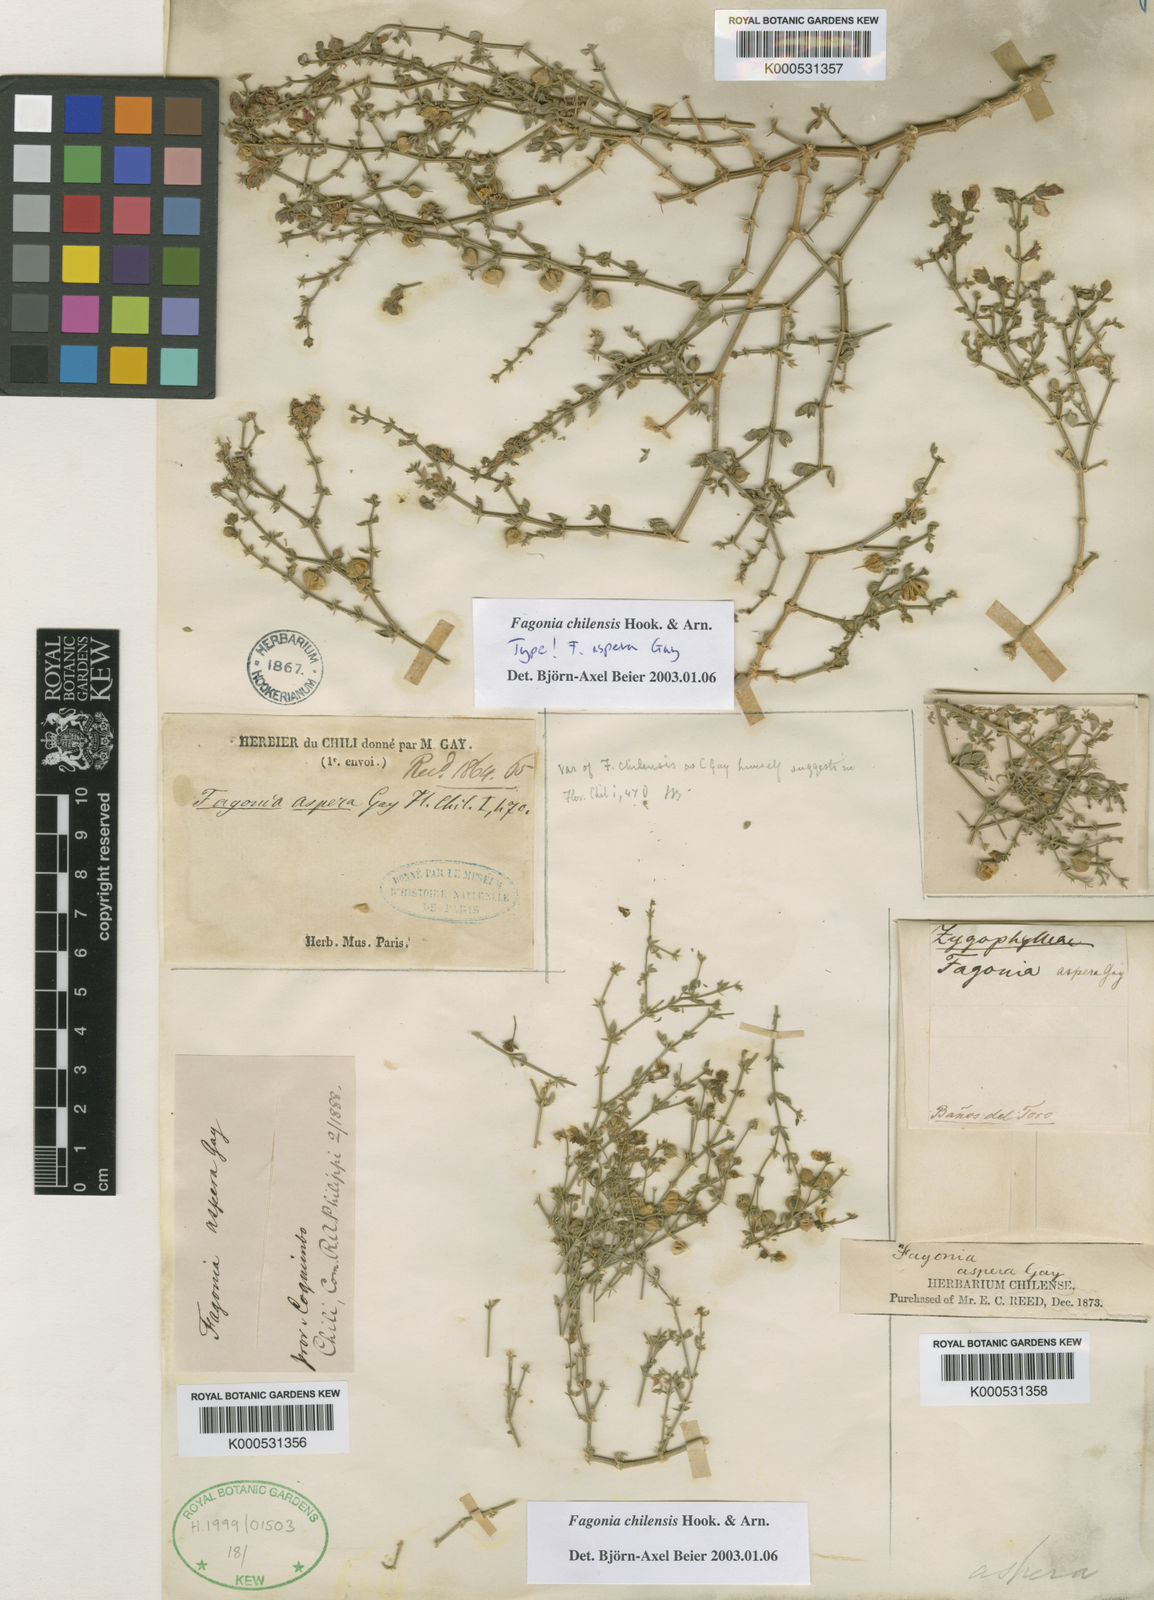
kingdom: Plantae
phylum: Tracheophyta
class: Magnoliopsida
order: Zygophyllales
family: Zygophyllaceae
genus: Fagonia
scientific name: Fagonia chilensis
